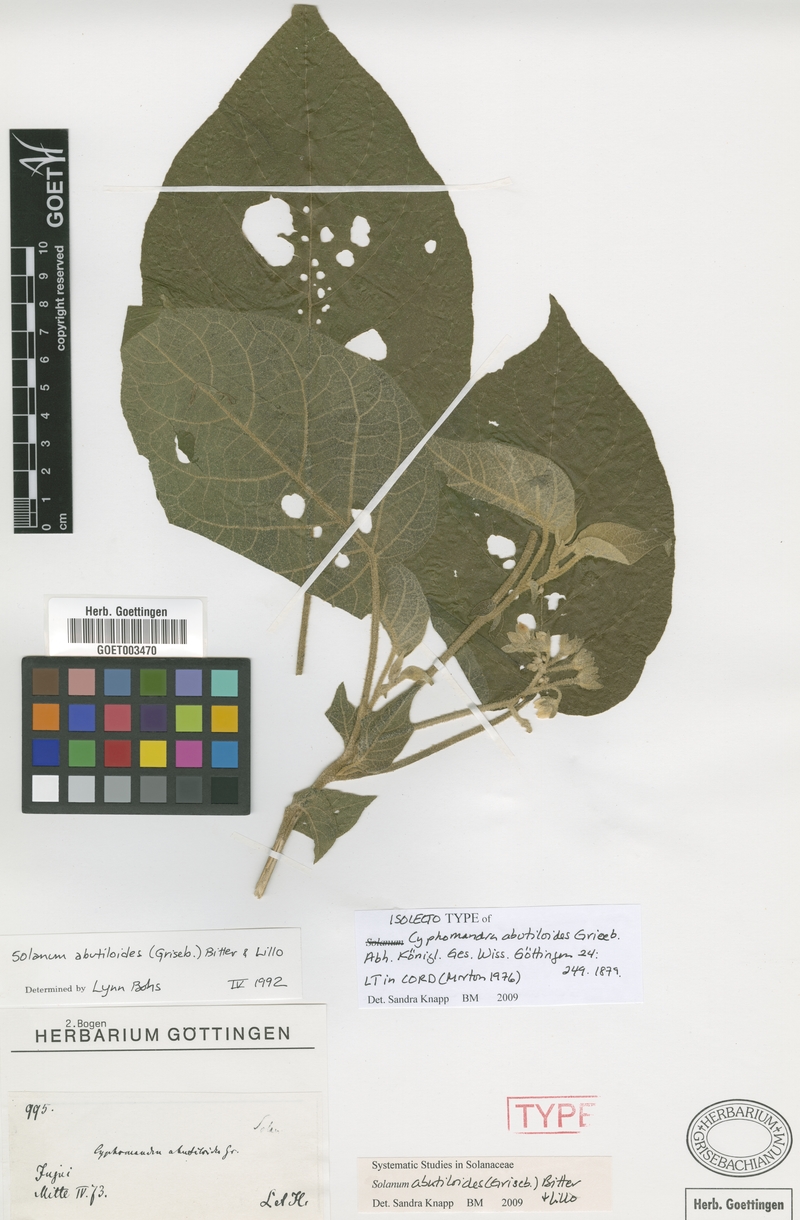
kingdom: Plantae
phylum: Tracheophyta
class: Magnoliopsida
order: Solanales
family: Solanaceae
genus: Solanum
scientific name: Solanum abutiloides
